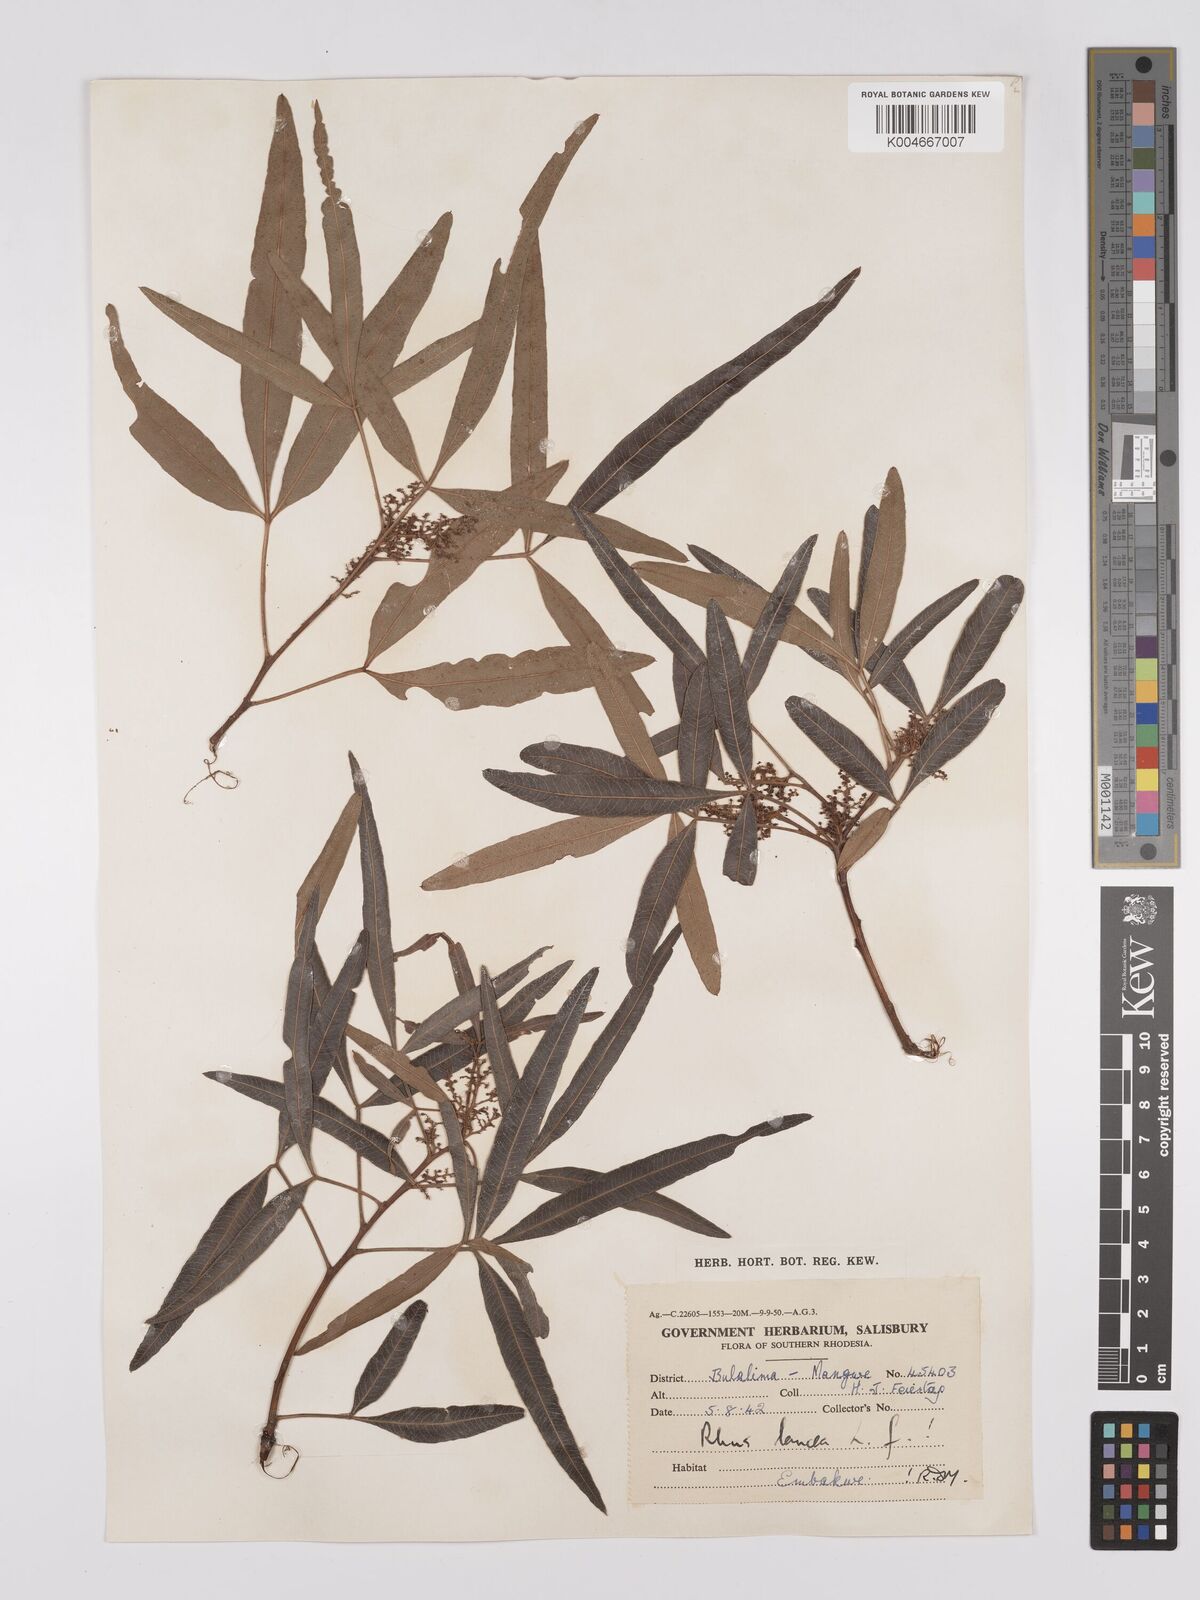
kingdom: Plantae
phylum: Tracheophyta
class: Magnoliopsida
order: Sapindales
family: Anacardiaceae
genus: Searsia
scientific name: Searsia lancea
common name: Cashew
